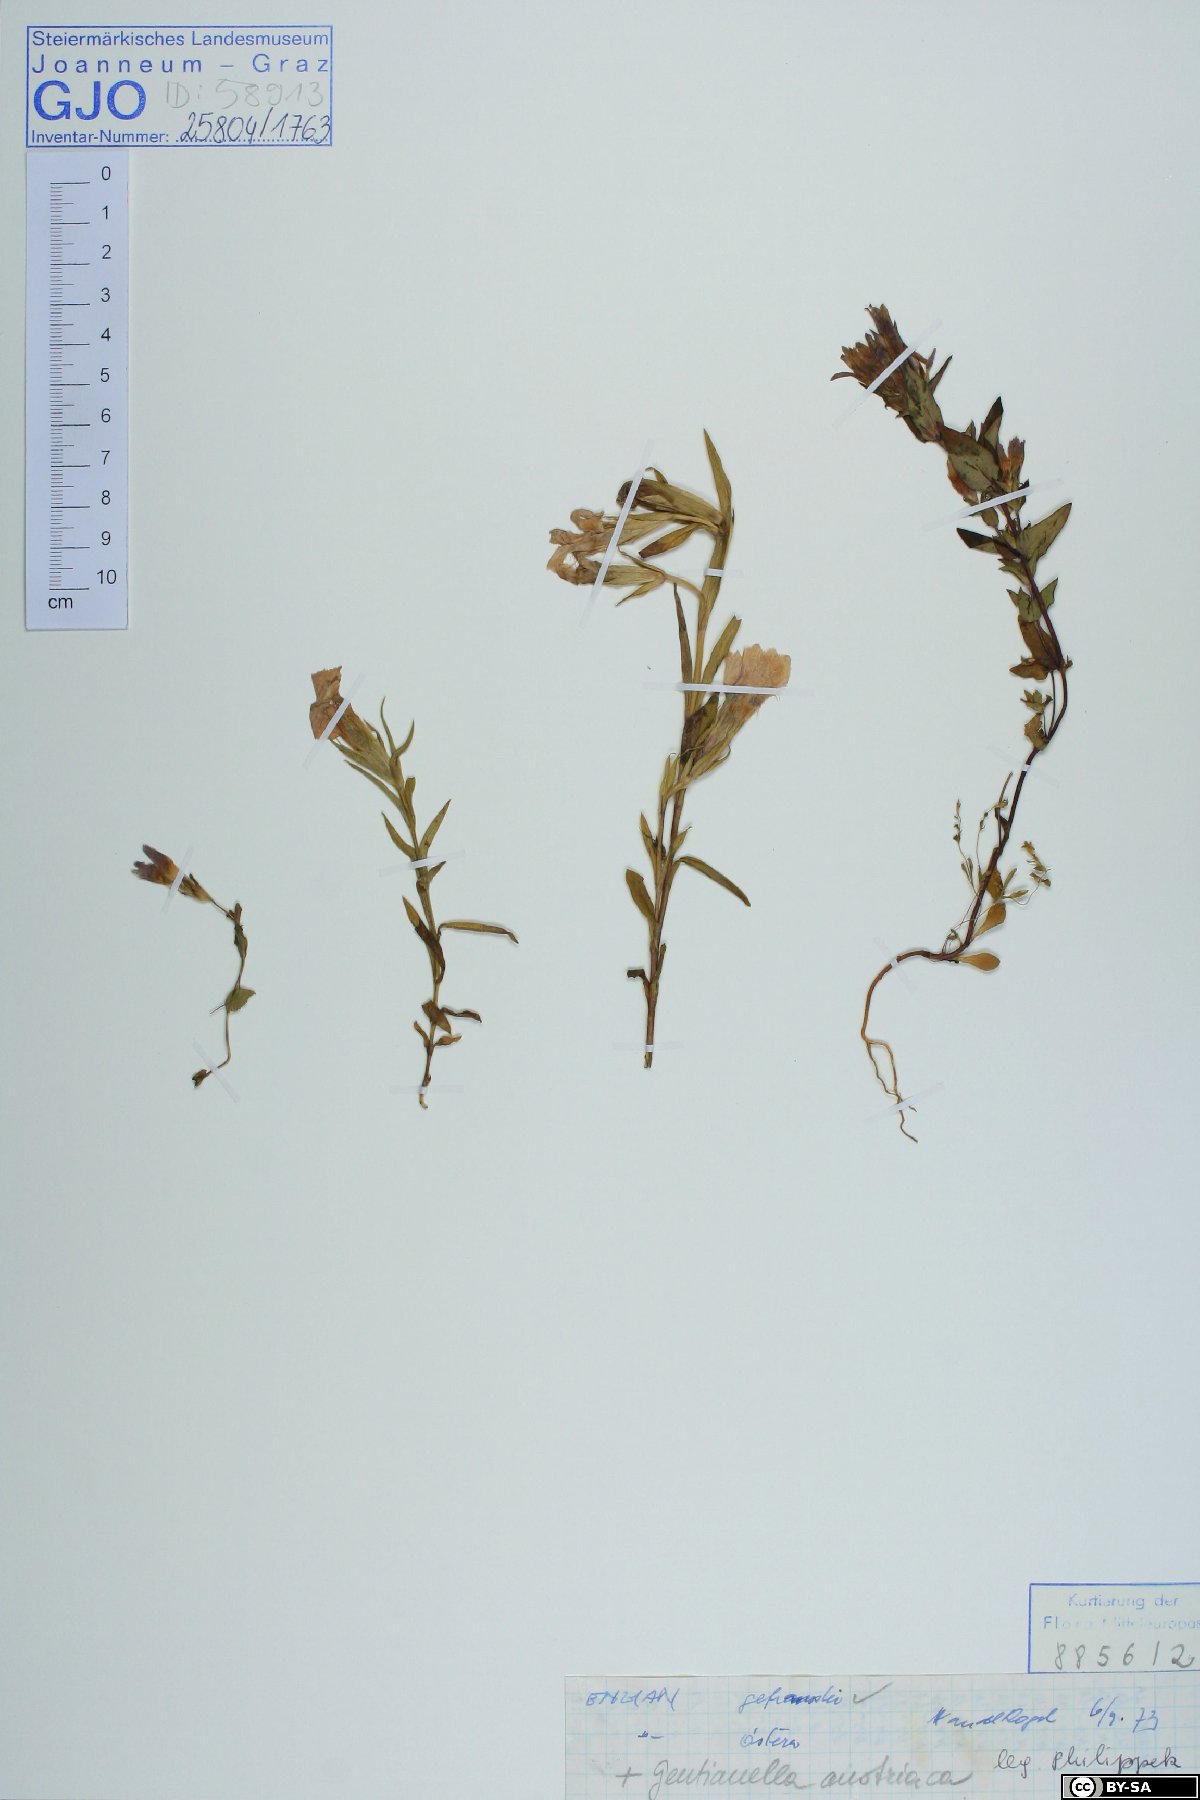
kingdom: Plantae
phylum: Tracheophyta
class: Magnoliopsida
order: Gentianales
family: Gentianaceae
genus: Gentianella
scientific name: Gentianella austriaca
